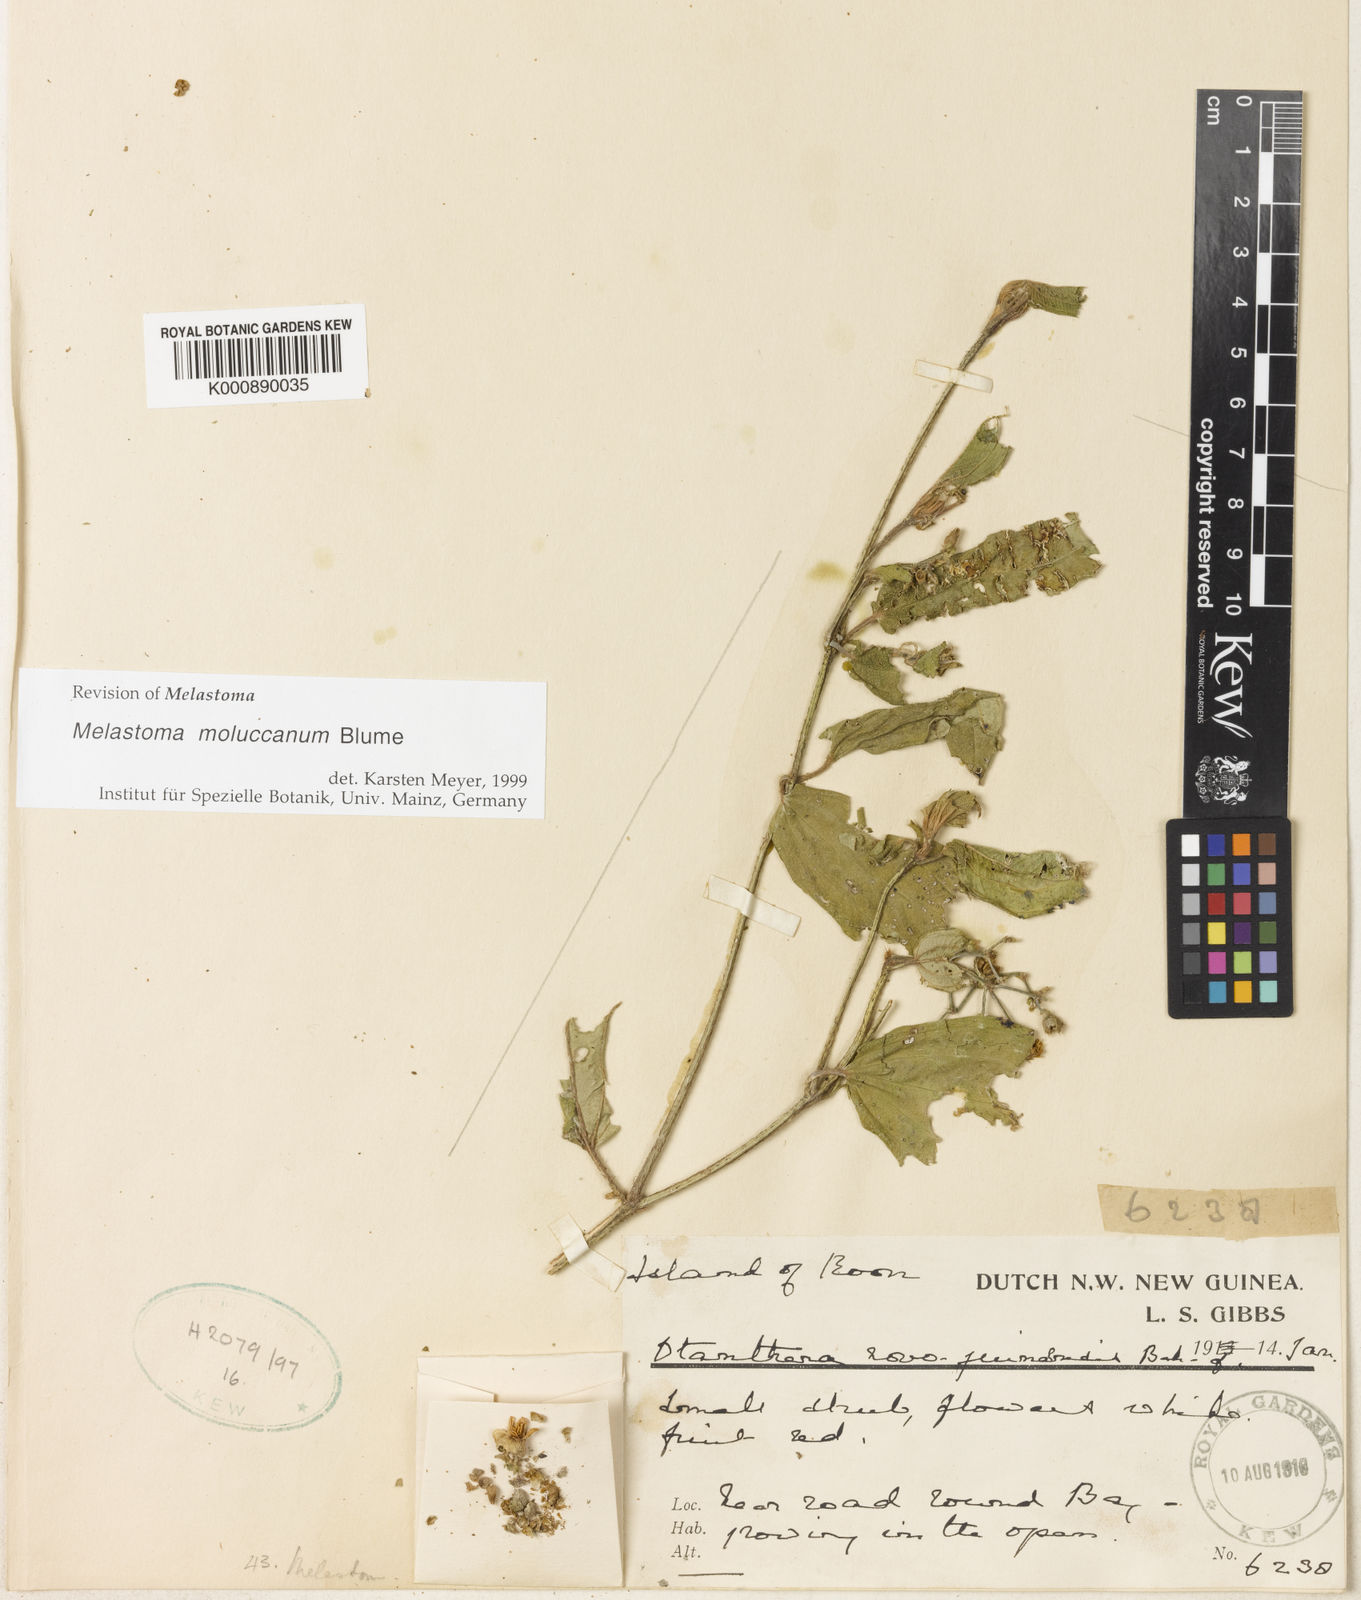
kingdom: Plantae
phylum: Tracheophyta
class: Magnoliopsida
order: Myrtales
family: Melastomataceae
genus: Melastoma
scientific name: Melastoma cyanoides
